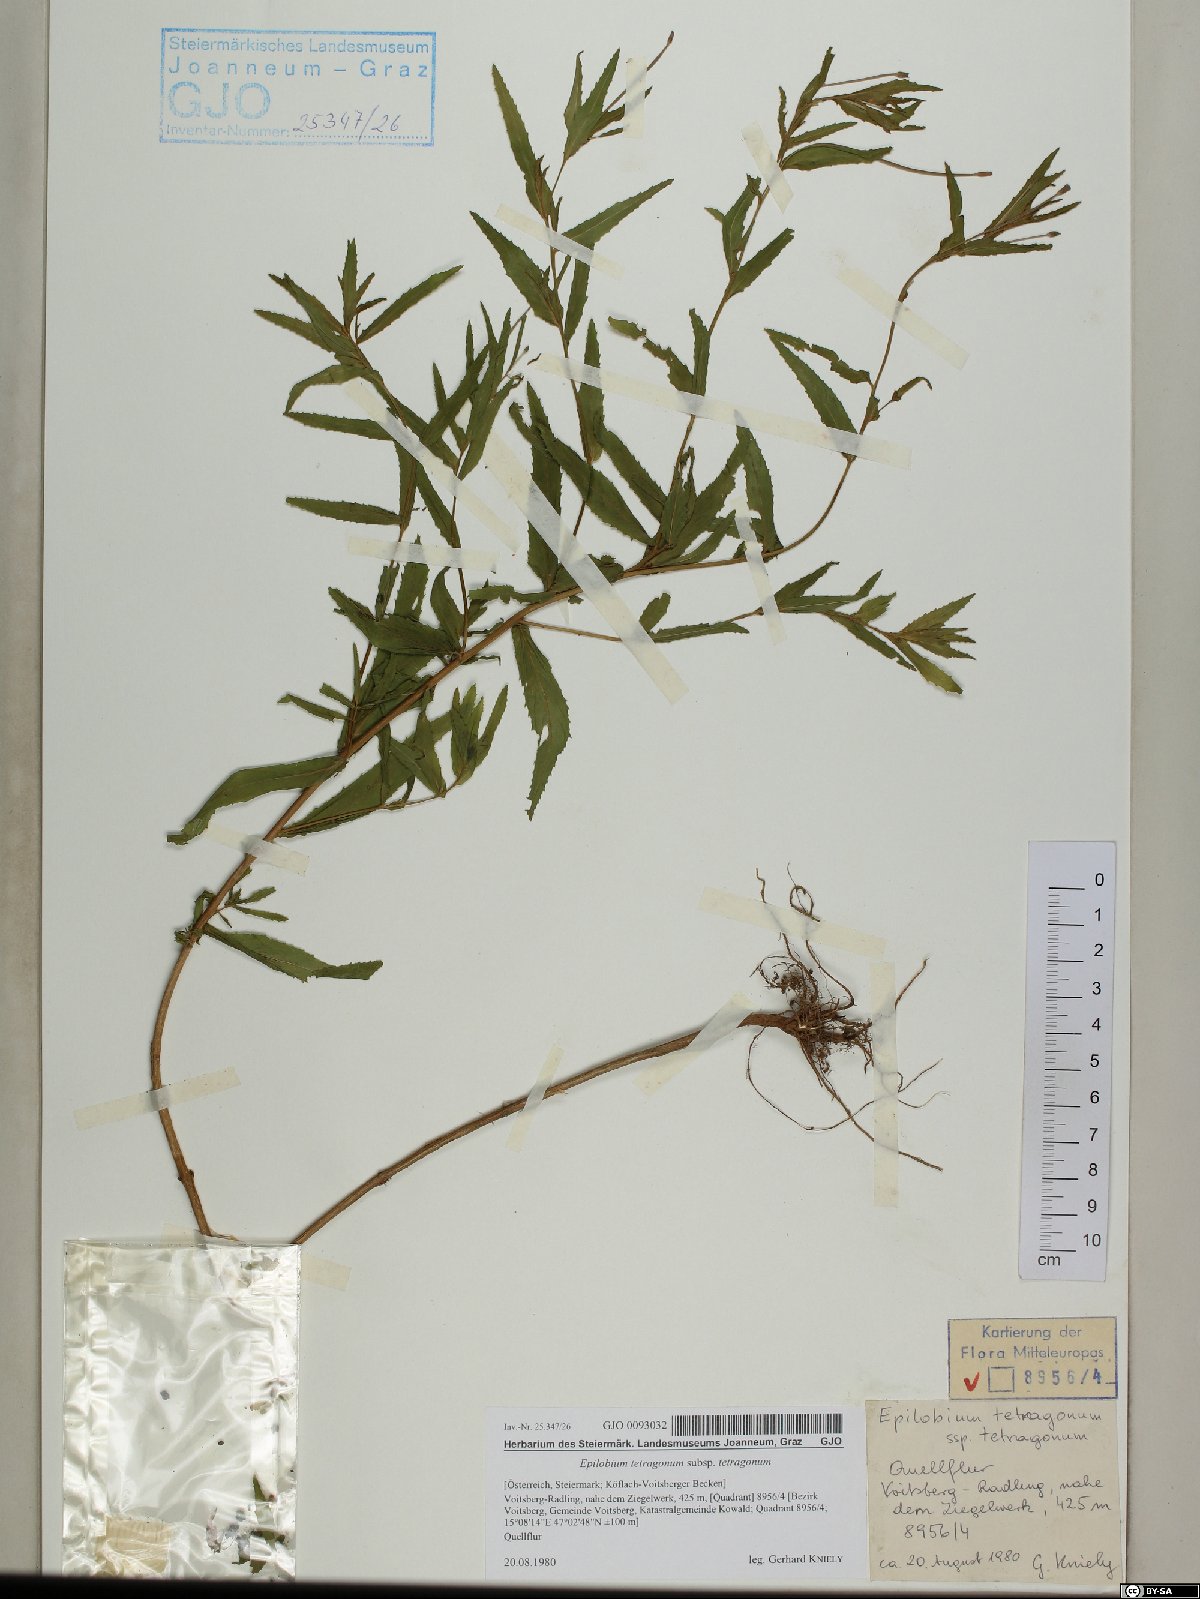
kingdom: Plantae
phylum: Tracheophyta
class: Magnoliopsida
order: Myrtales
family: Onagraceae
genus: Epilobium
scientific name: Epilobium tetragonum
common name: Square-stemmed willowherb
